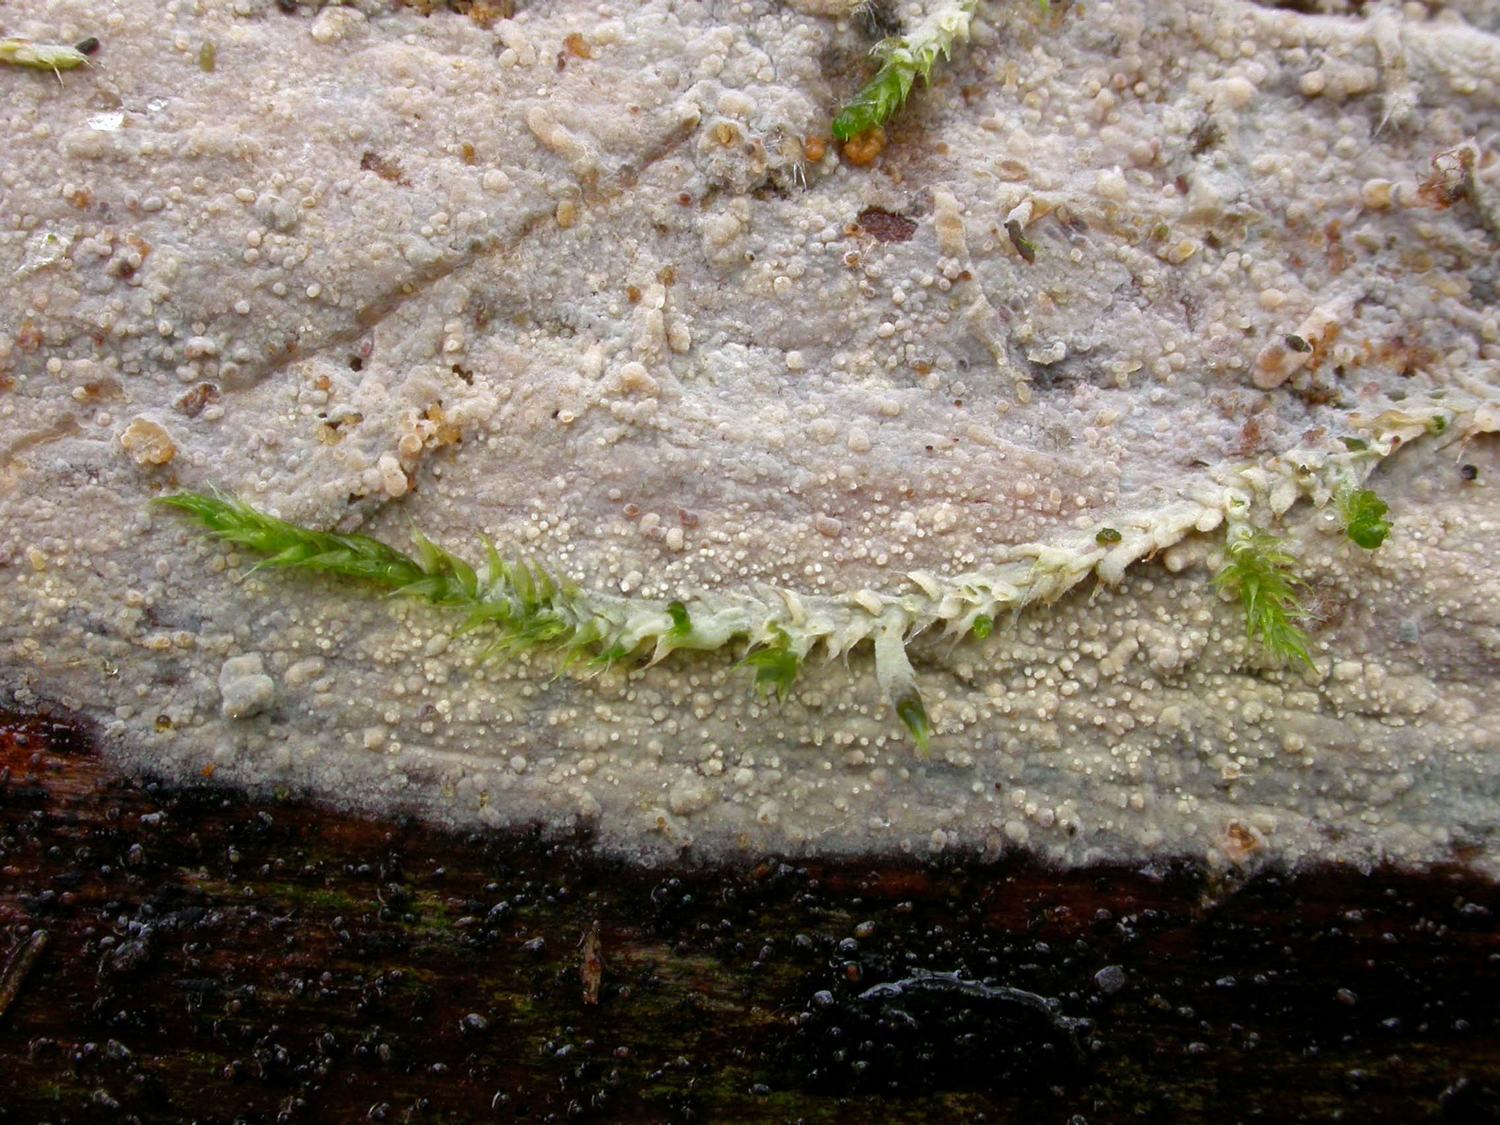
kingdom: Fungi
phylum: Basidiomycota
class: Agaricomycetes
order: Corticiales
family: Vuilleminiaceae
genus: Vuilleminia
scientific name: Vuilleminia comedens
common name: almindelig barksprænger
